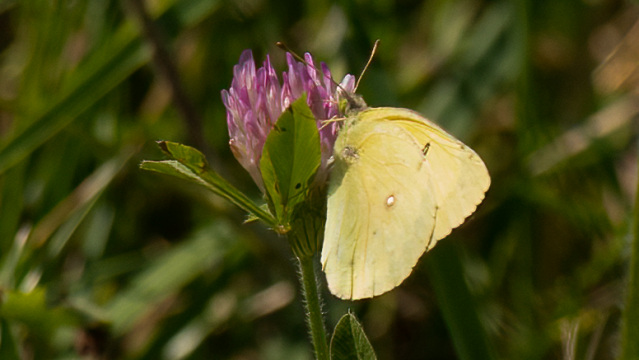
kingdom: Animalia
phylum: Arthropoda
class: Insecta
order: Lepidoptera
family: Pieridae
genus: Colias
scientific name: Colias philodice
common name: Clouded Sulphur
